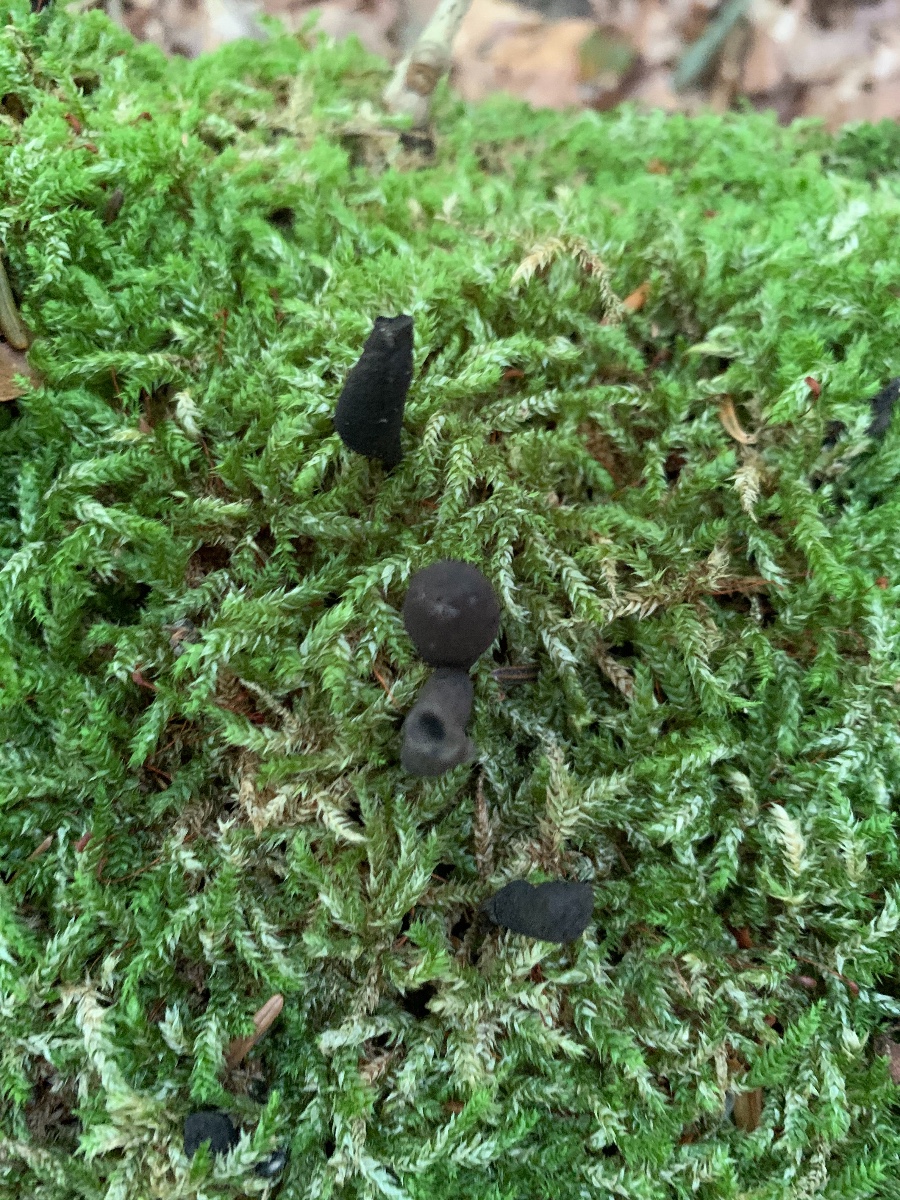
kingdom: Fungi
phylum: Ascomycota
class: Sordariomycetes
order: Xylariales
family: Xylariaceae
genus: Xylaria
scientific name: Xylaria polymorpha
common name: kølle-stødsvamp
